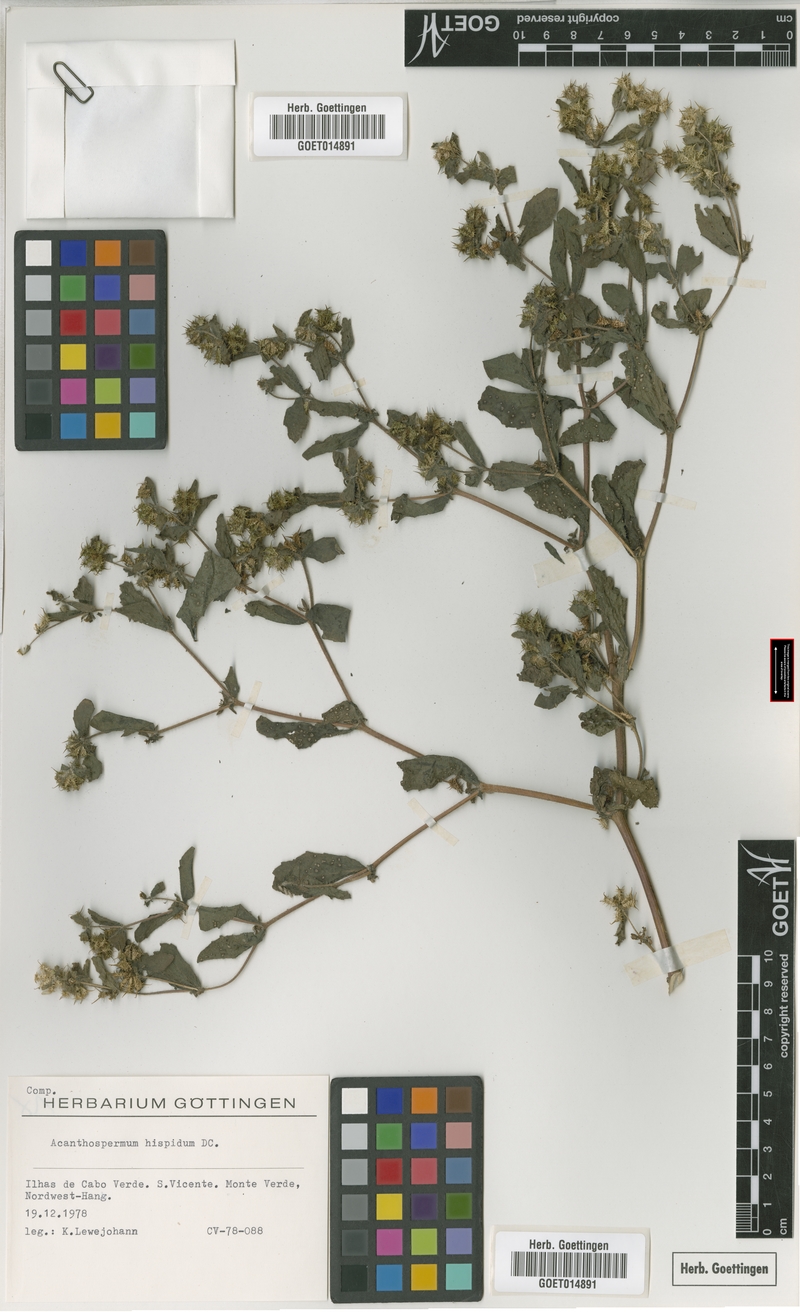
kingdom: Plantae
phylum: Tracheophyta
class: Magnoliopsida
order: Asterales
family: Asteraceae
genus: Acanthospermum
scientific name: Acanthospermum hispidum
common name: Hispid starbur
